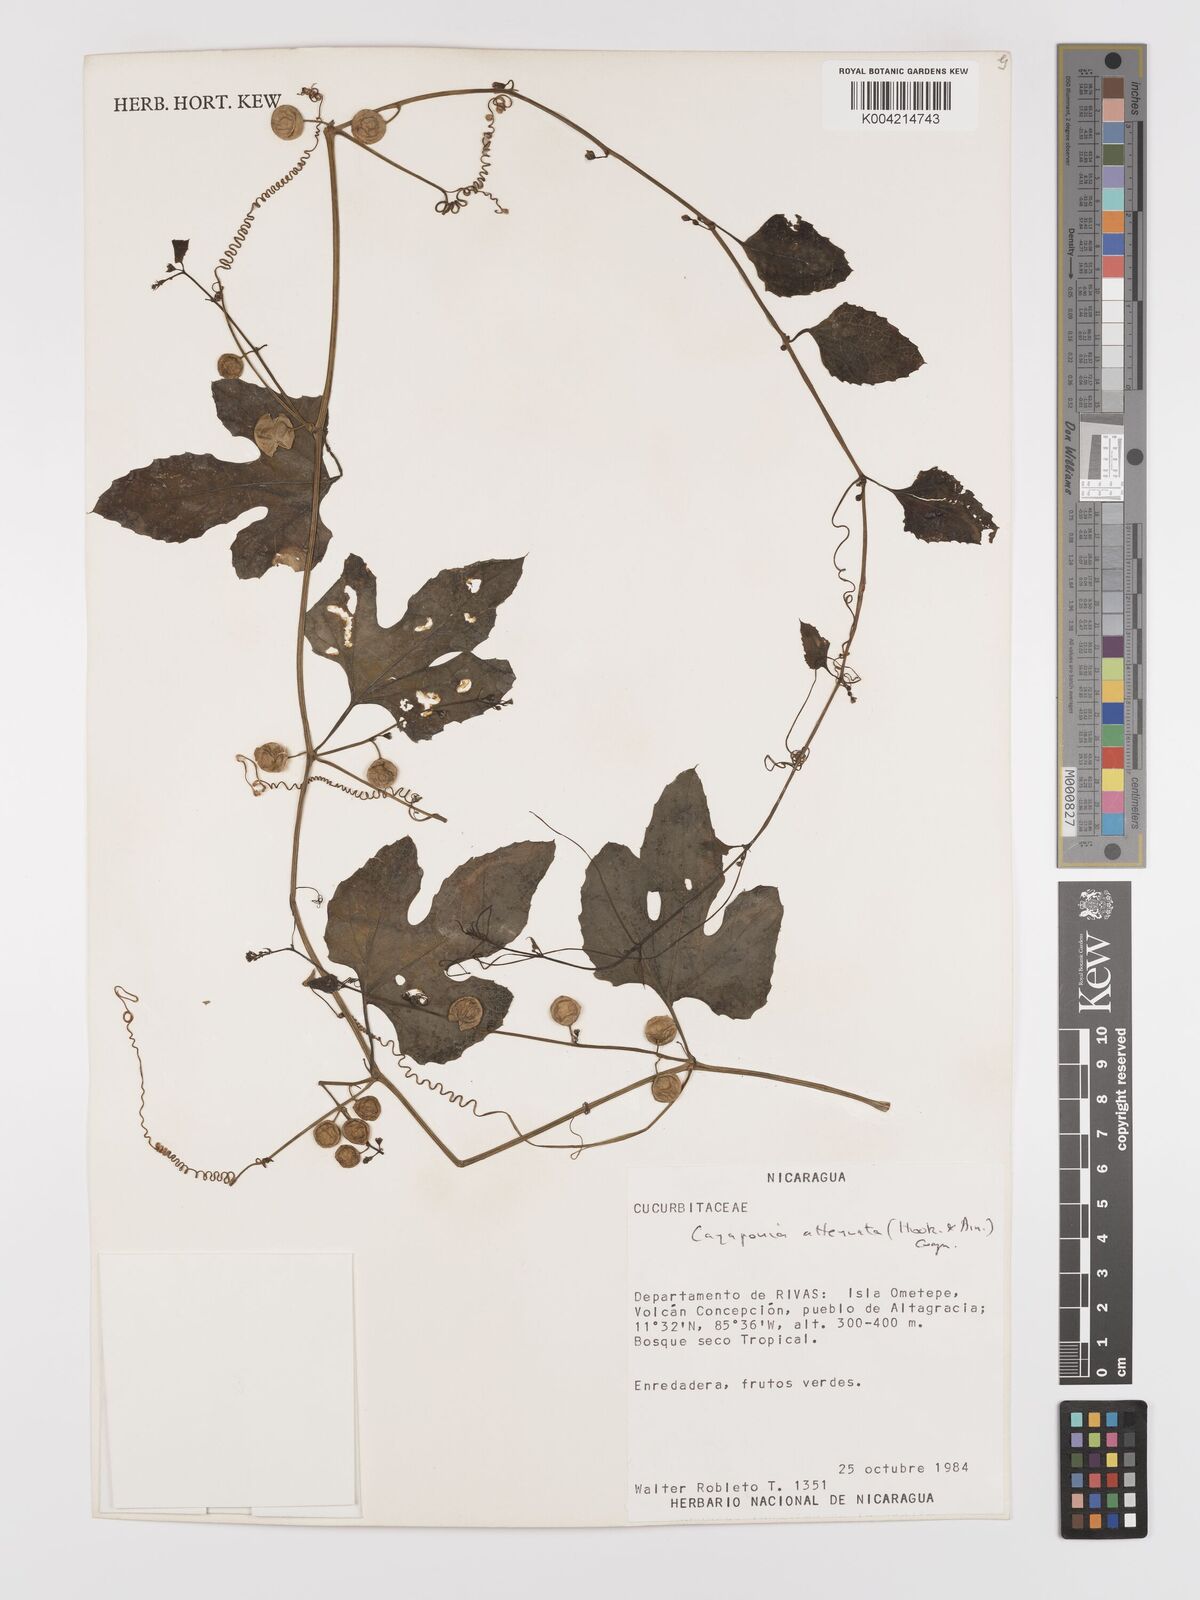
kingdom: Plantae
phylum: Tracheophyta
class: Magnoliopsida
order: Cucurbitales
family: Cucurbitaceae
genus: Cayaponia
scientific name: Cayaponia attenuata
